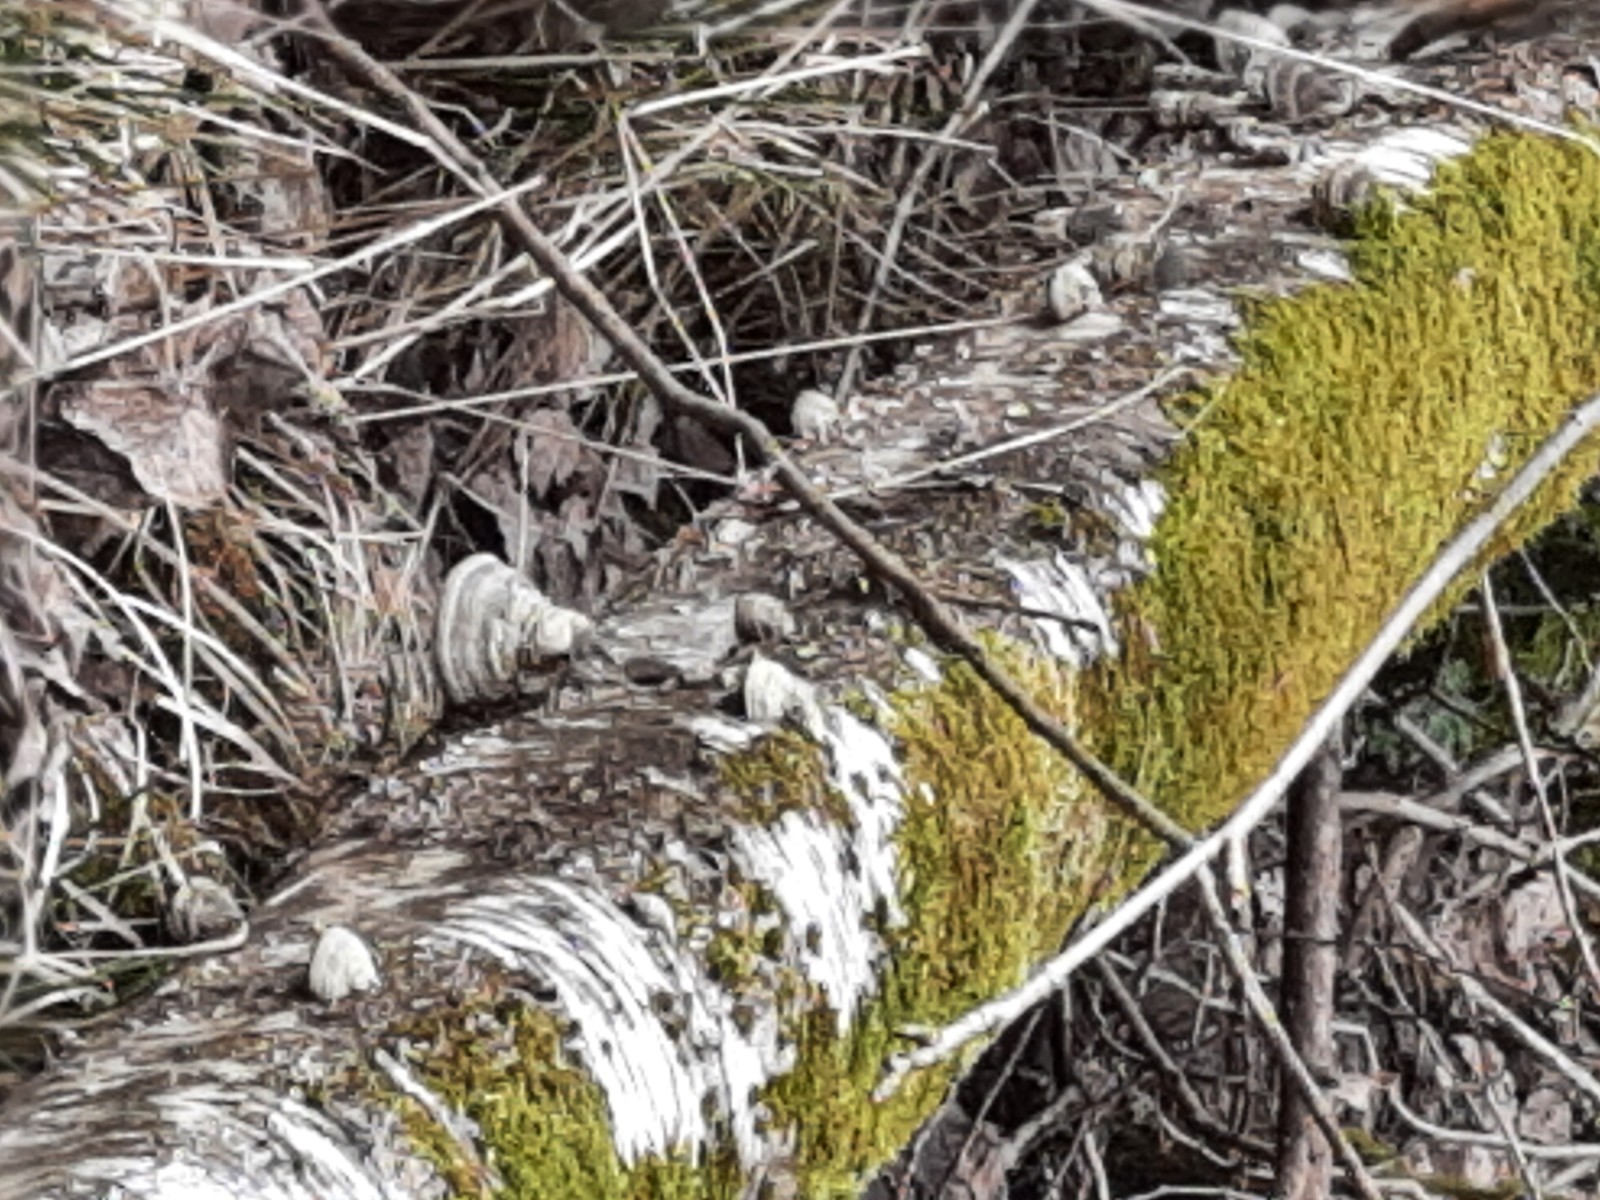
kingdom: Fungi
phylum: Basidiomycota
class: Agaricomycetes
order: Polyporales
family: Polyporaceae
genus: Fomes
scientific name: Fomes fomentarius
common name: tøndersvamp
